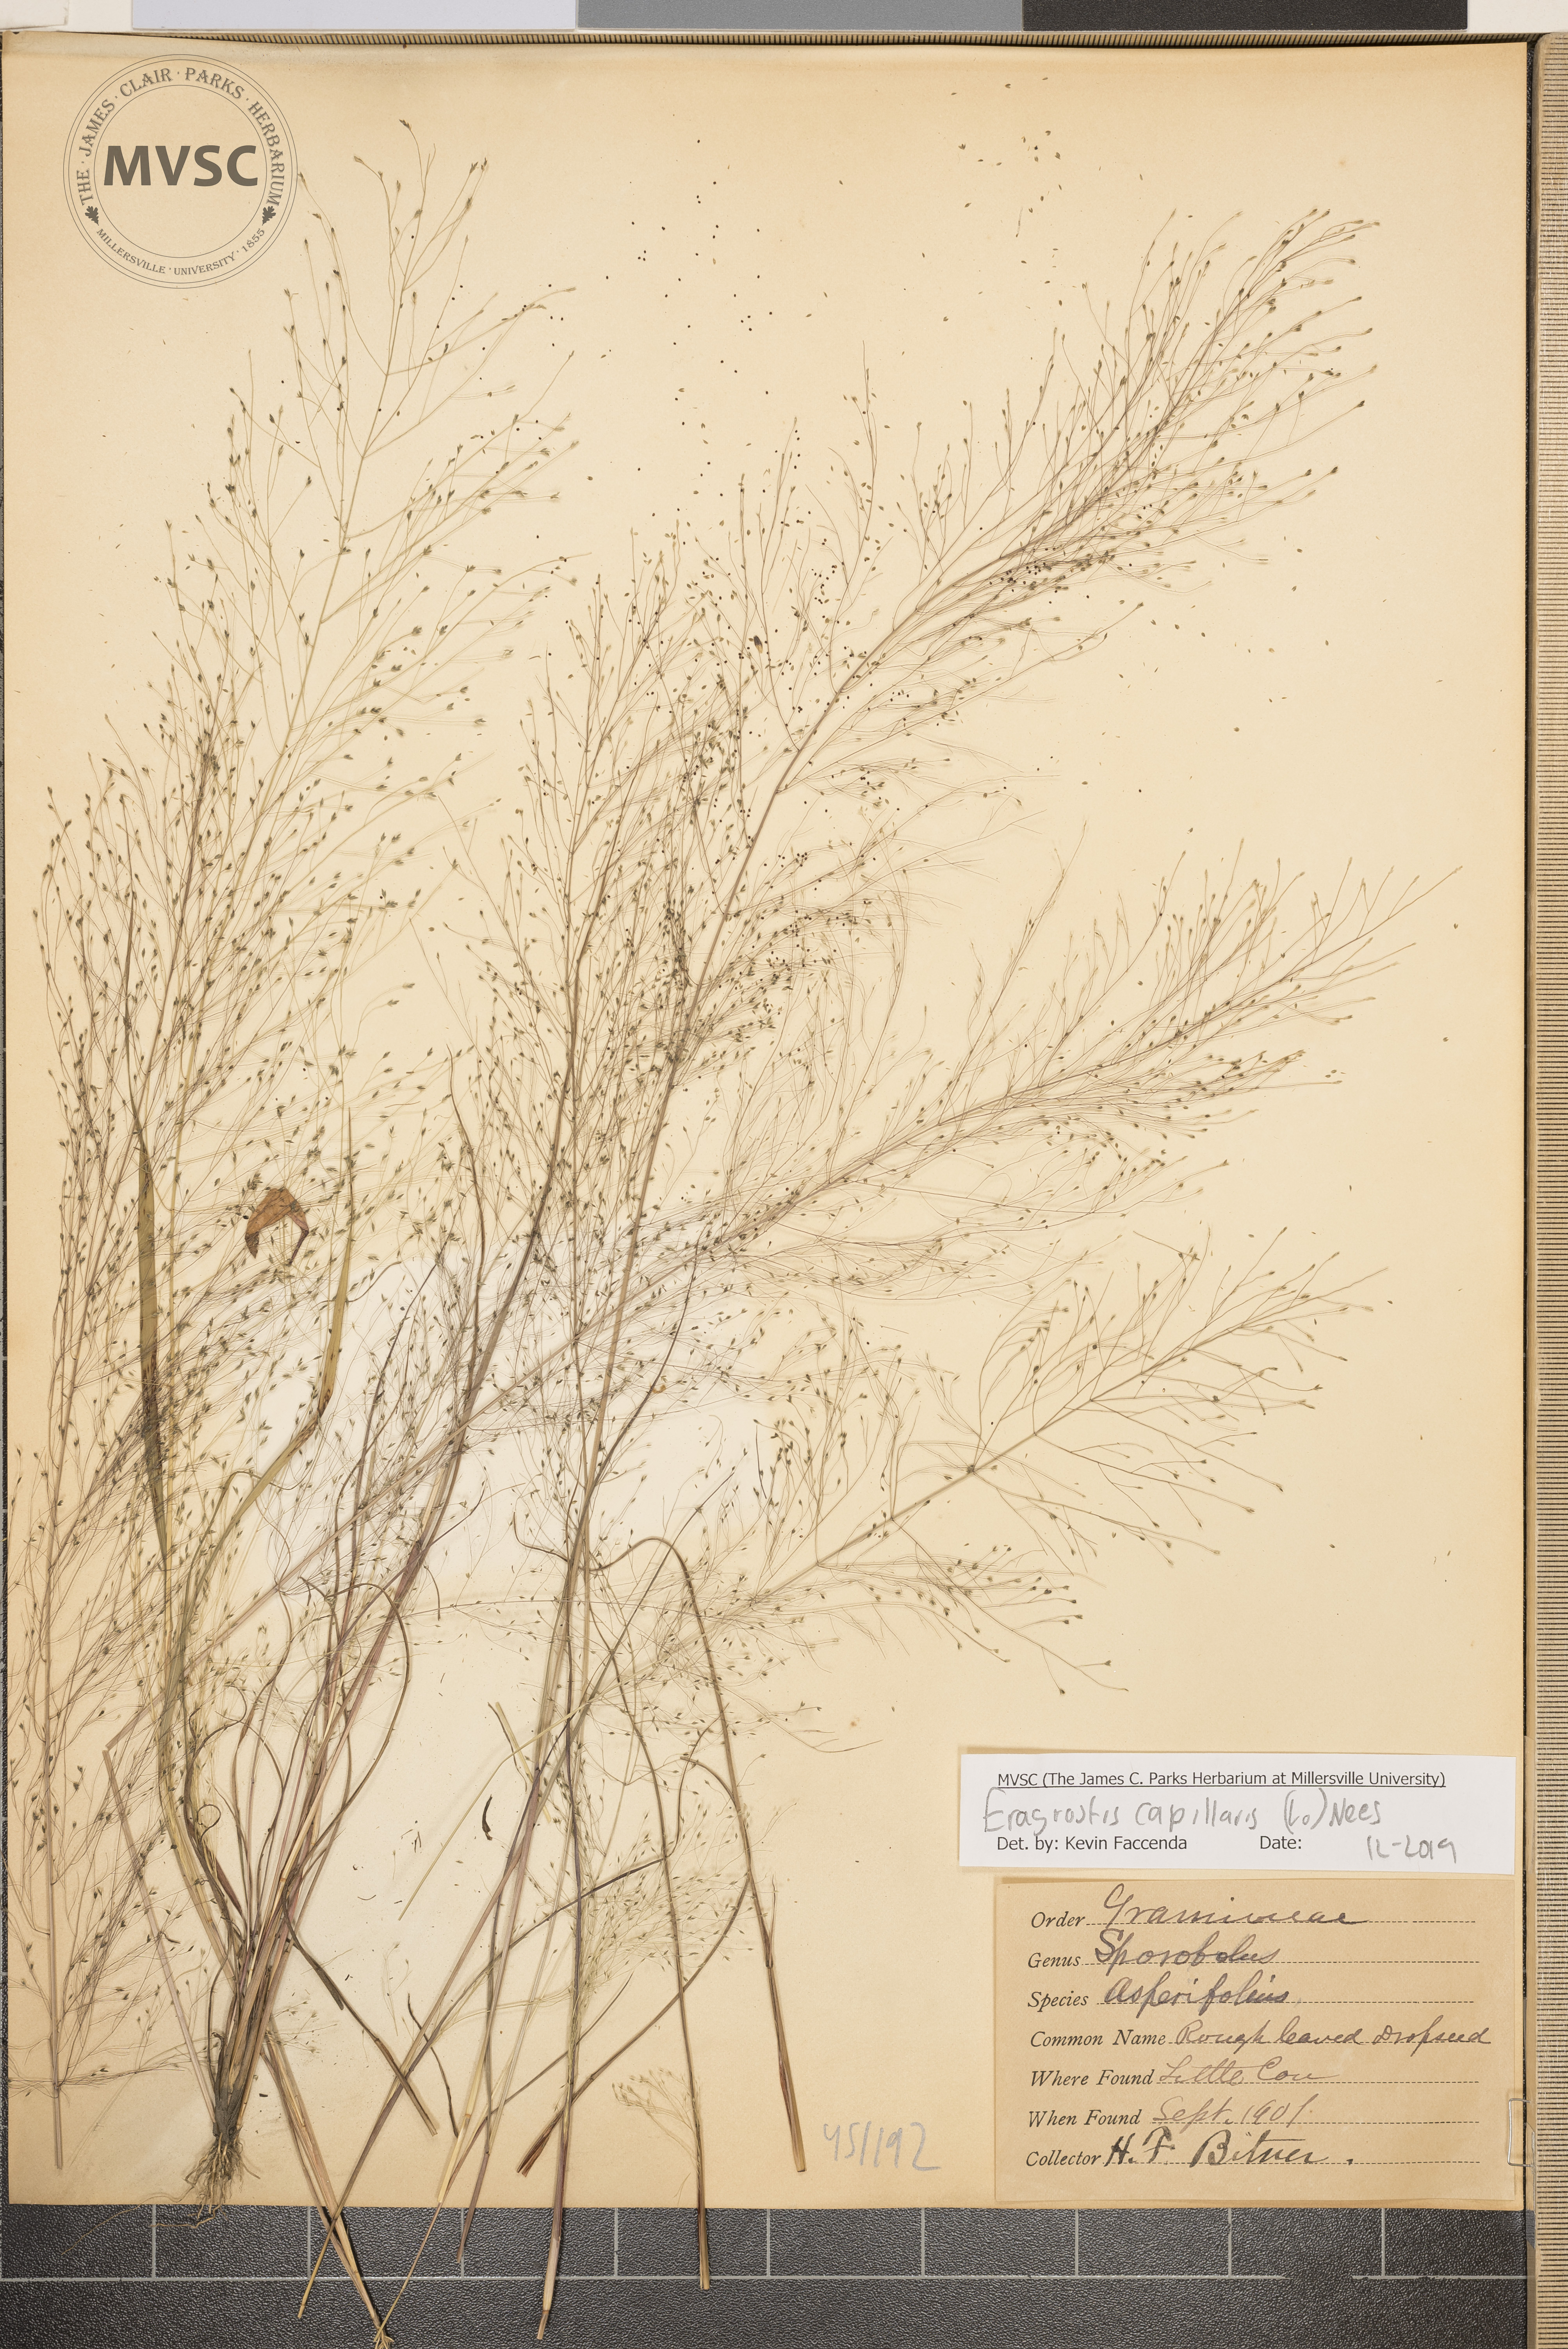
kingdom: Plantae
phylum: Tracheophyta
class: Liliopsida
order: Poales
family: Poaceae
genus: Eragrostis
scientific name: Eragrostis capillaris
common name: Hair-like lovegrass
